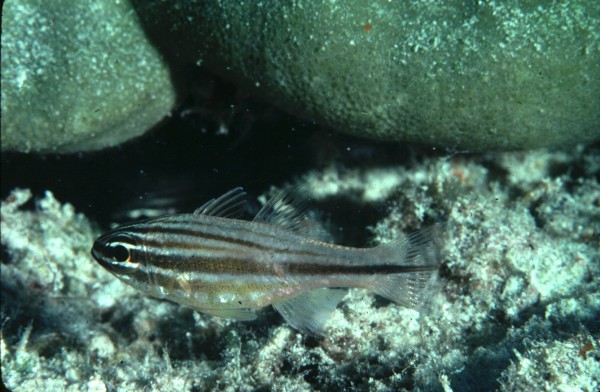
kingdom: Animalia
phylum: Chordata
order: Perciformes
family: Apogonidae
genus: Ostorhinchus
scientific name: Ostorhinchus holotaenia
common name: Copperstriped cardinalfish
